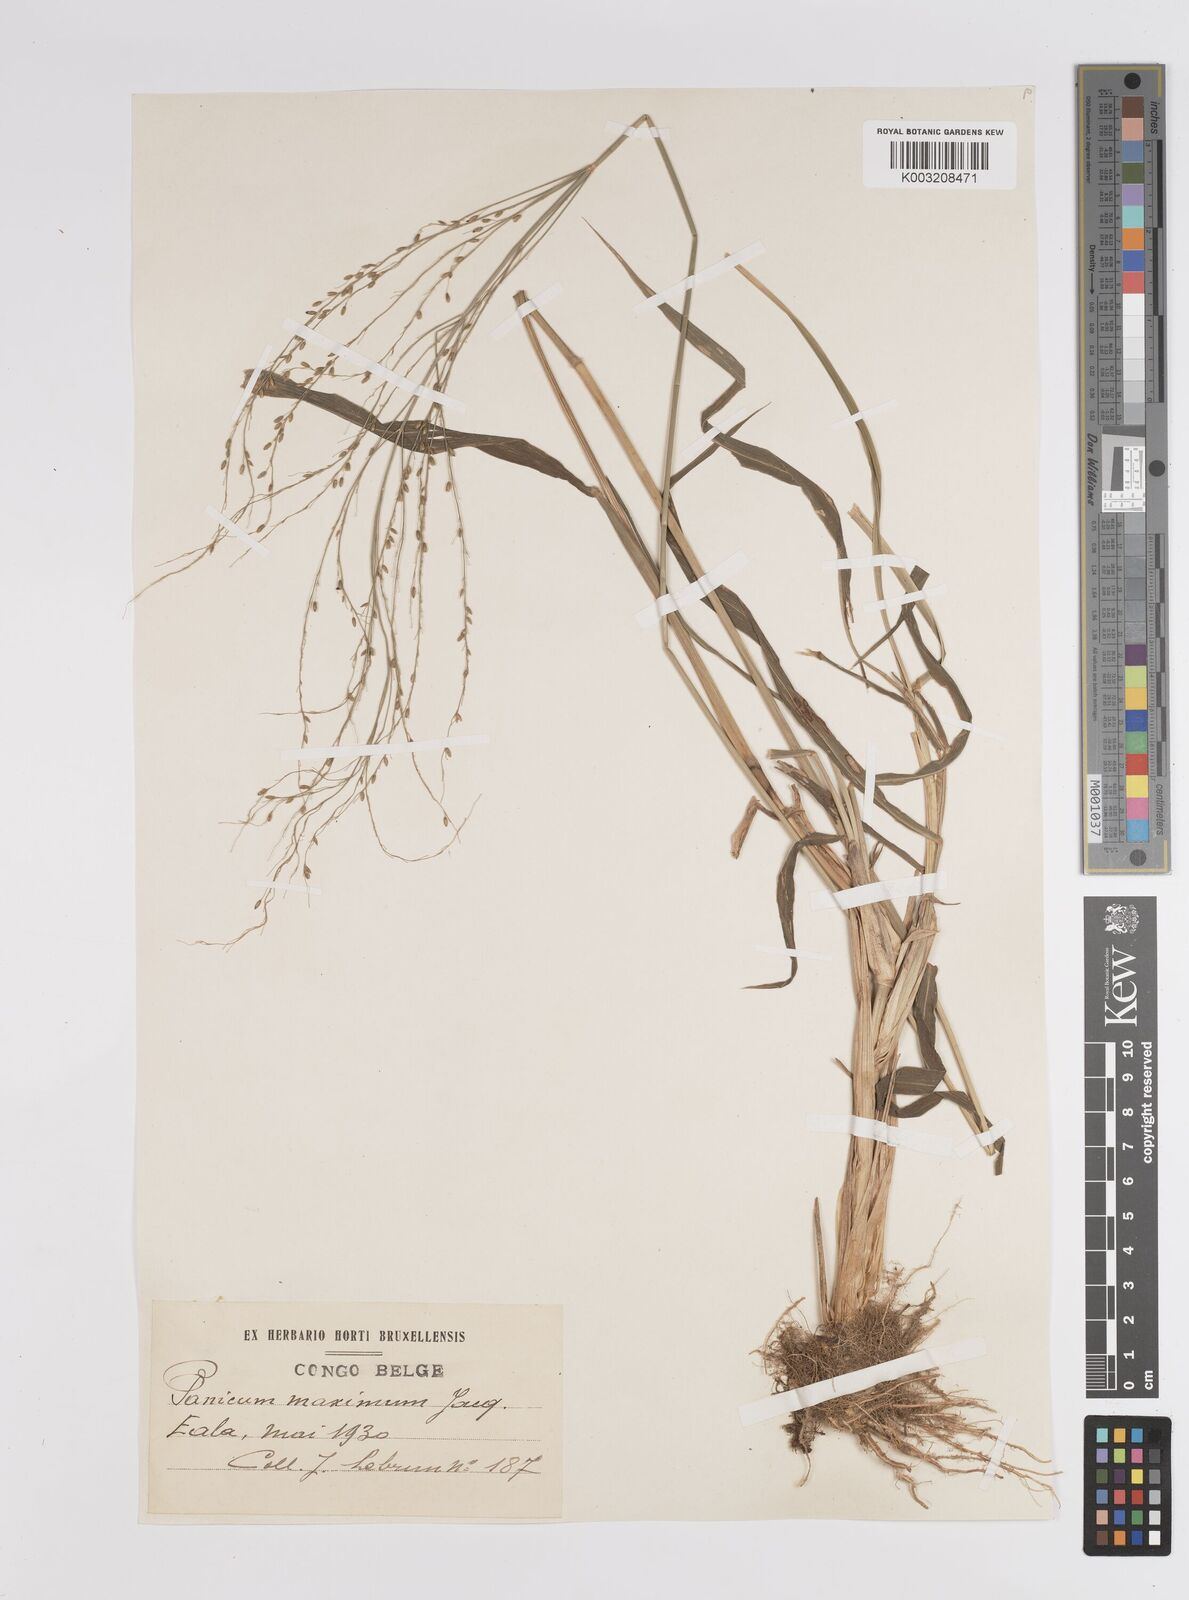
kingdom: Plantae
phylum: Tracheophyta
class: Liliopsida
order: Poales
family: Poaceae
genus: Megathyrsus
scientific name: Megathyrsus maximus
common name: Guineagrass
